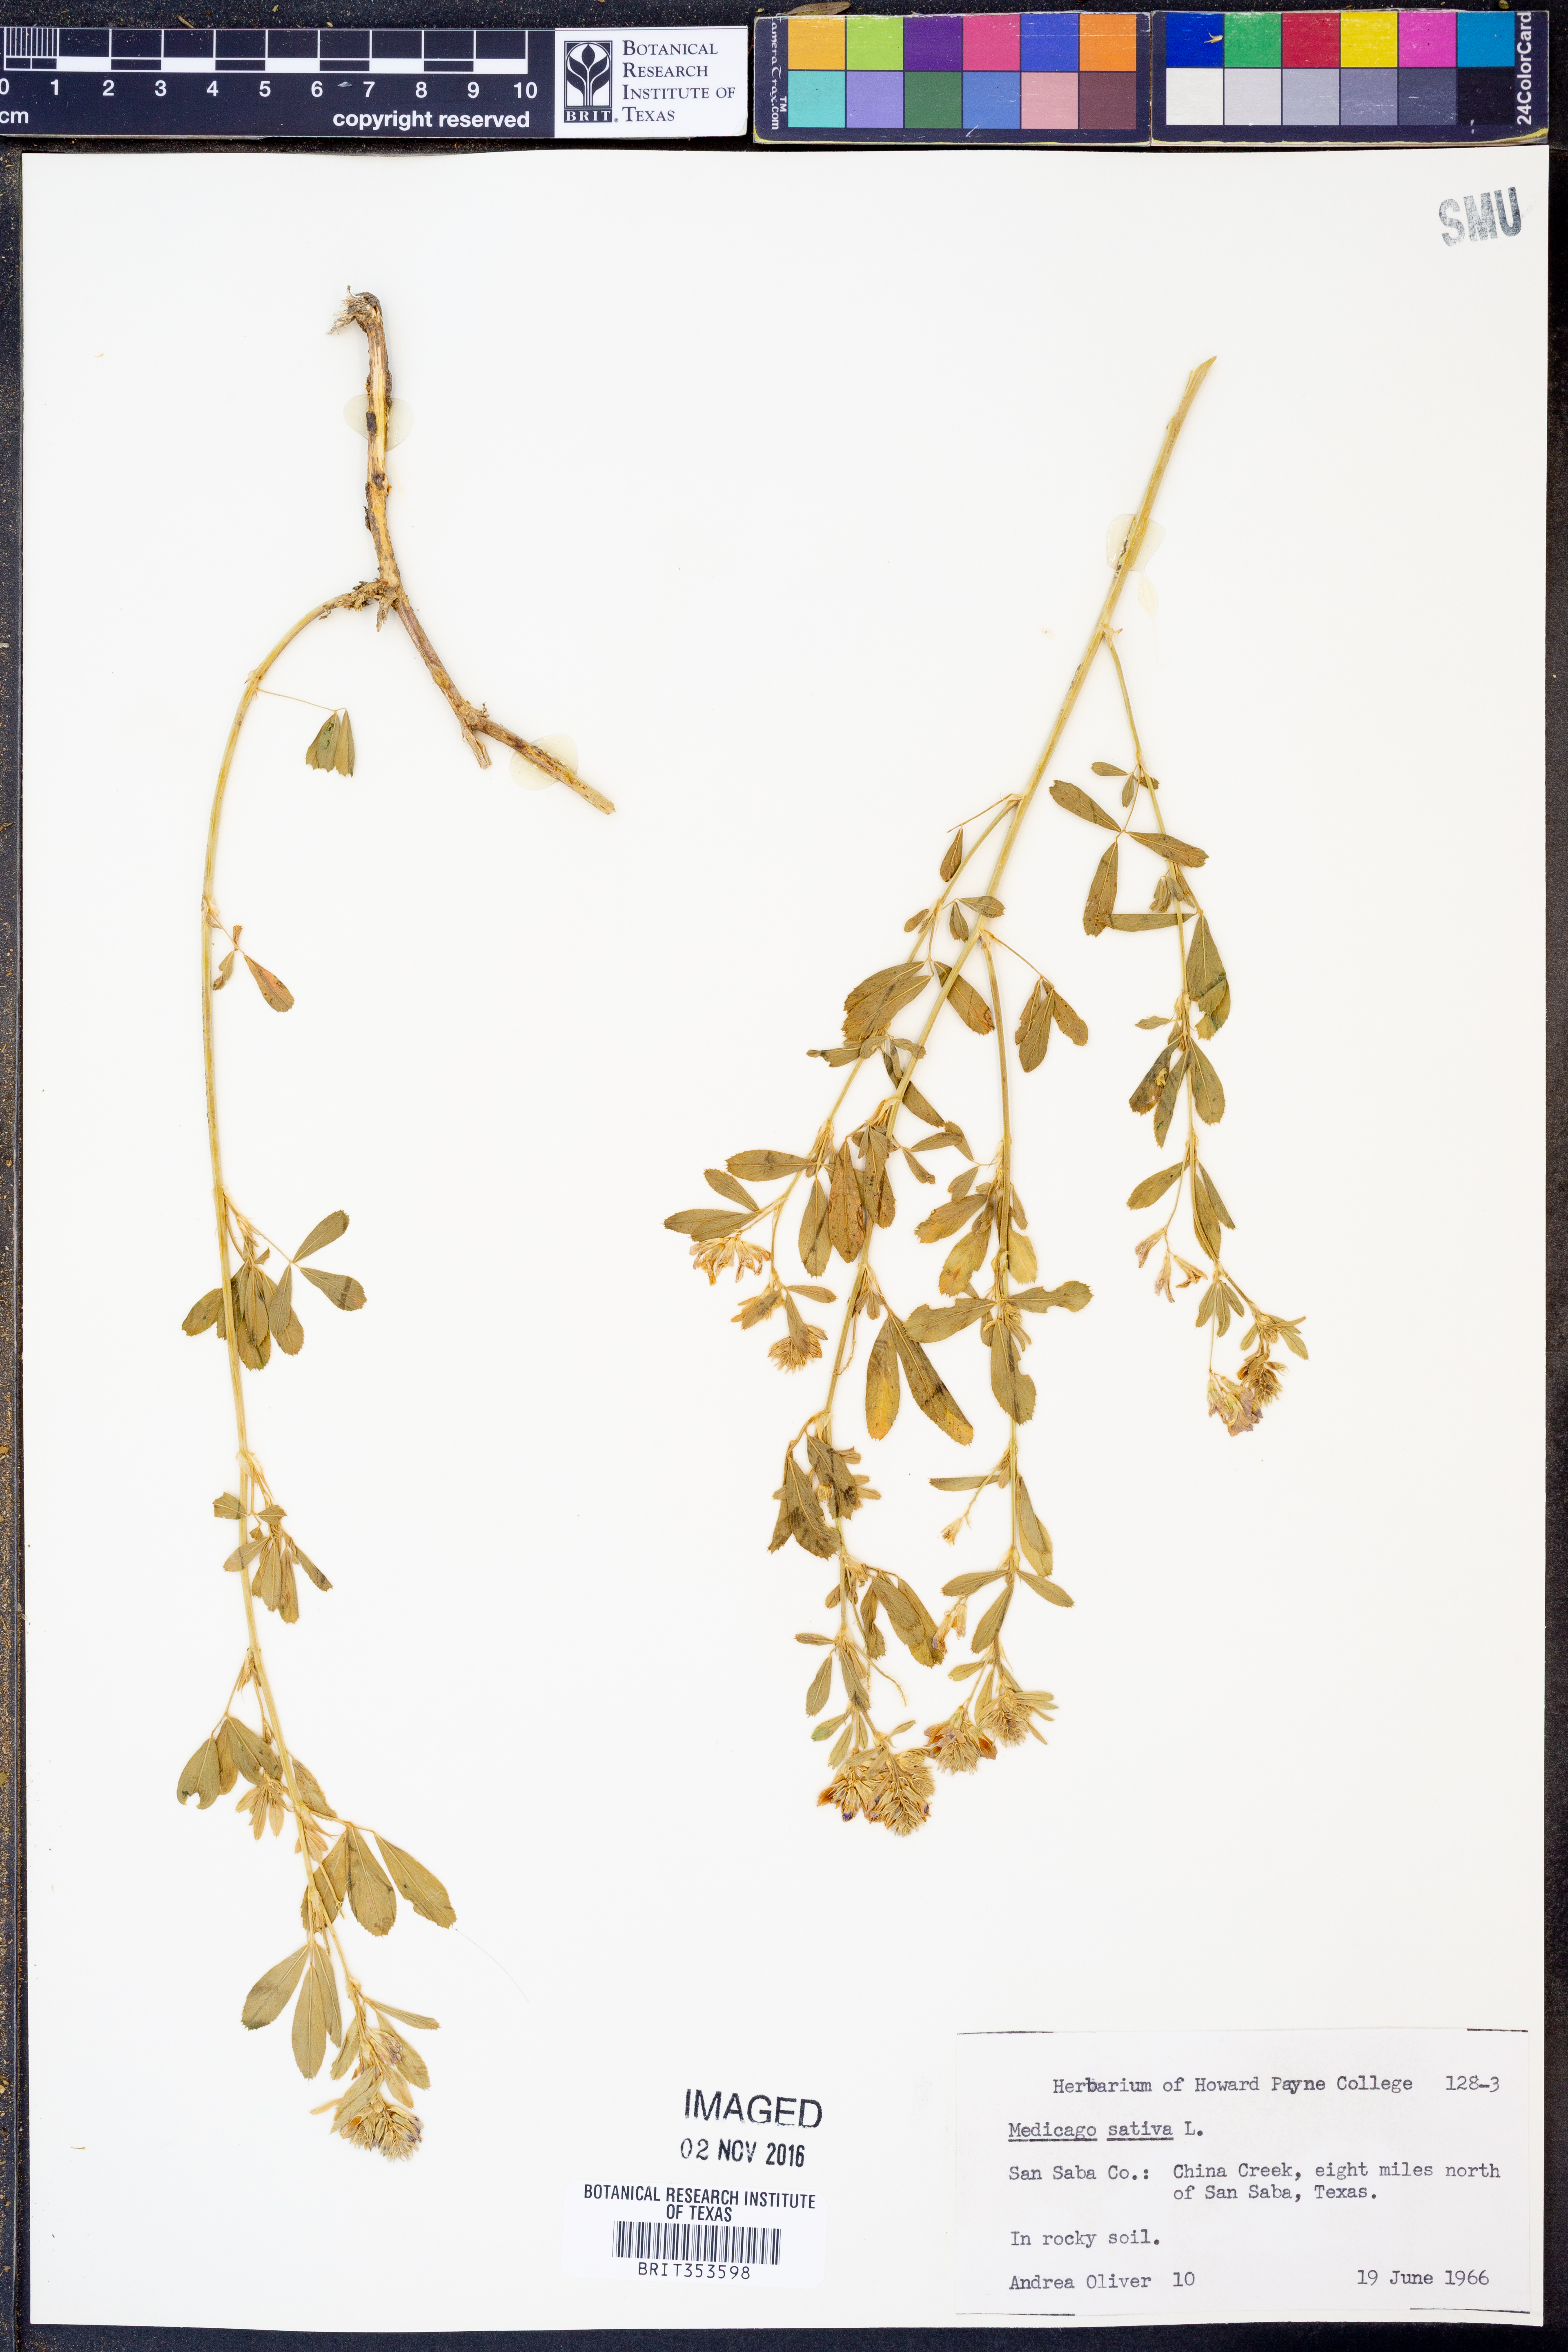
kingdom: Plantae
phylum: Tracheophyta
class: Magnoliopsida
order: Fabales
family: Fabaceae
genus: Medicago
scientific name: Medicago sativa
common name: Alfalfa
